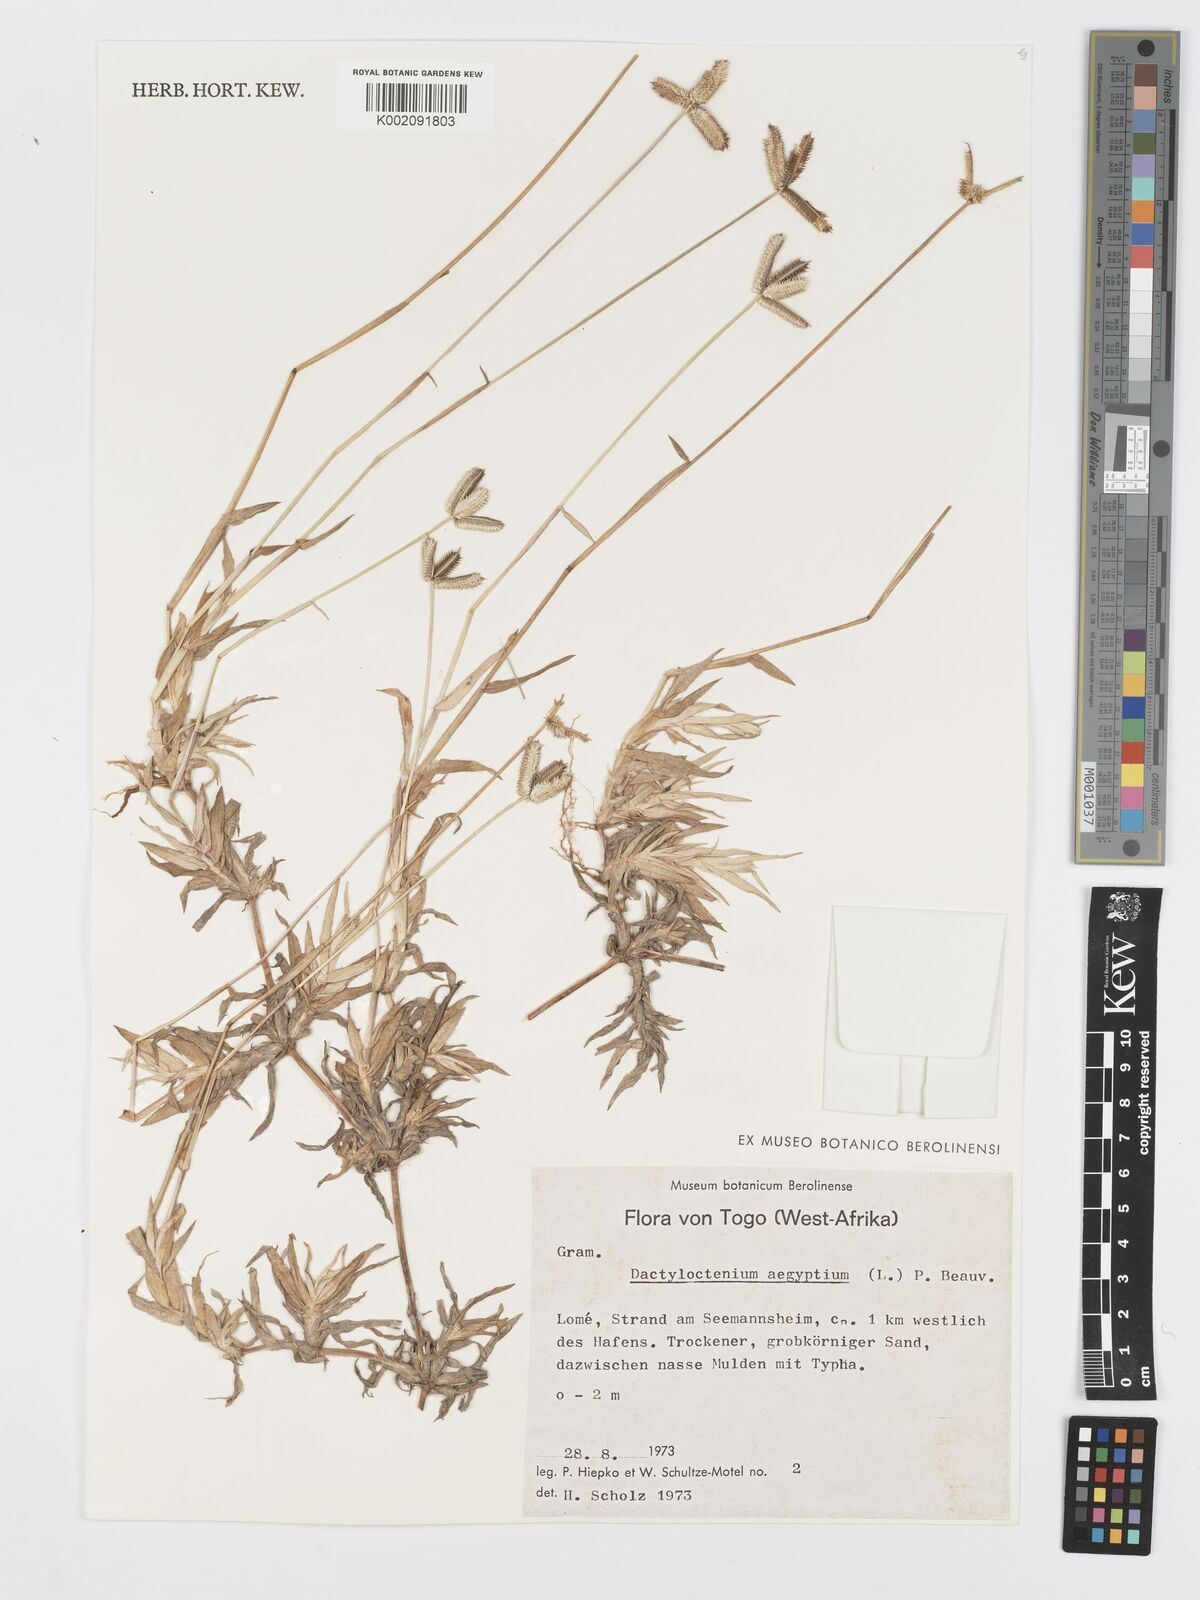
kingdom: Plantae
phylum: Tracheophyta
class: Liliopsida
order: Poales
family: Poaceae
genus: Dactyloctenium
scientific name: Dactyloctenium aegyptium
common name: Egyptian grass
